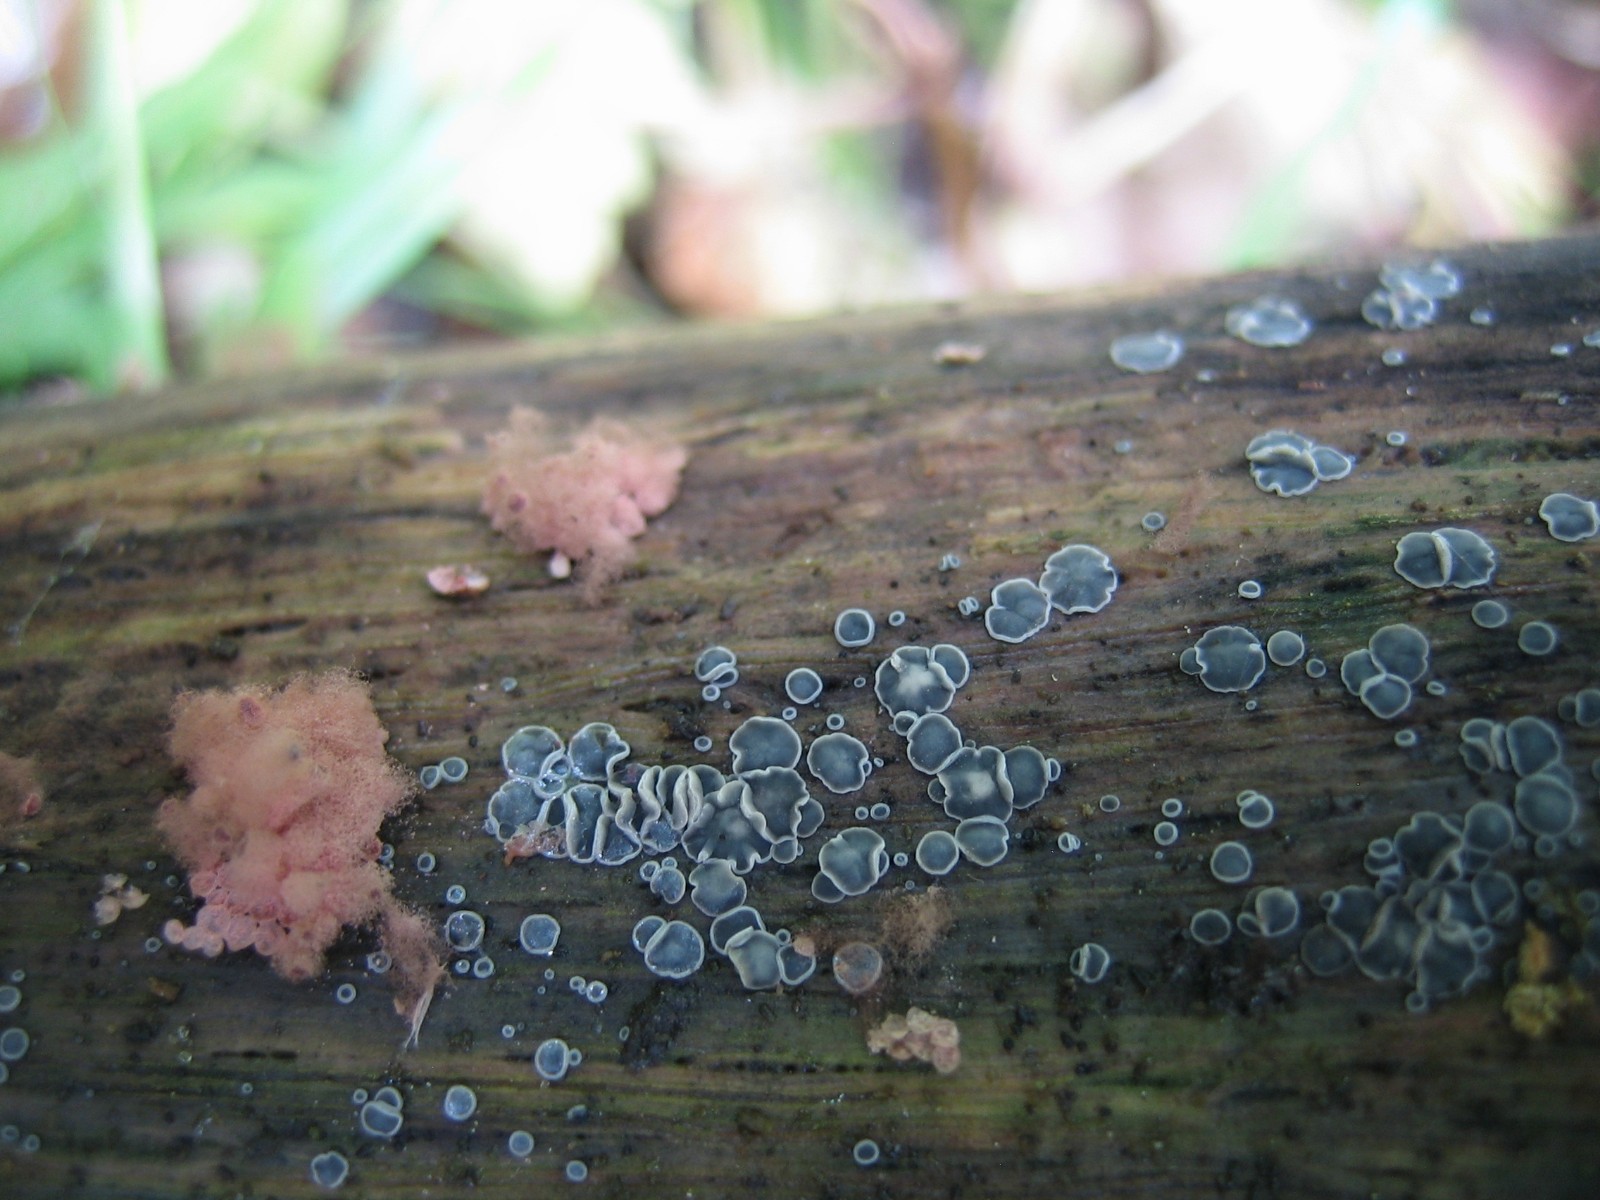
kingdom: Fungi
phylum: Ascomycota
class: Leotiomycetes
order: Helotiales
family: Mollisiaceae
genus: Mollisia
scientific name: Mollisia cinerea
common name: almindelig gråskive
